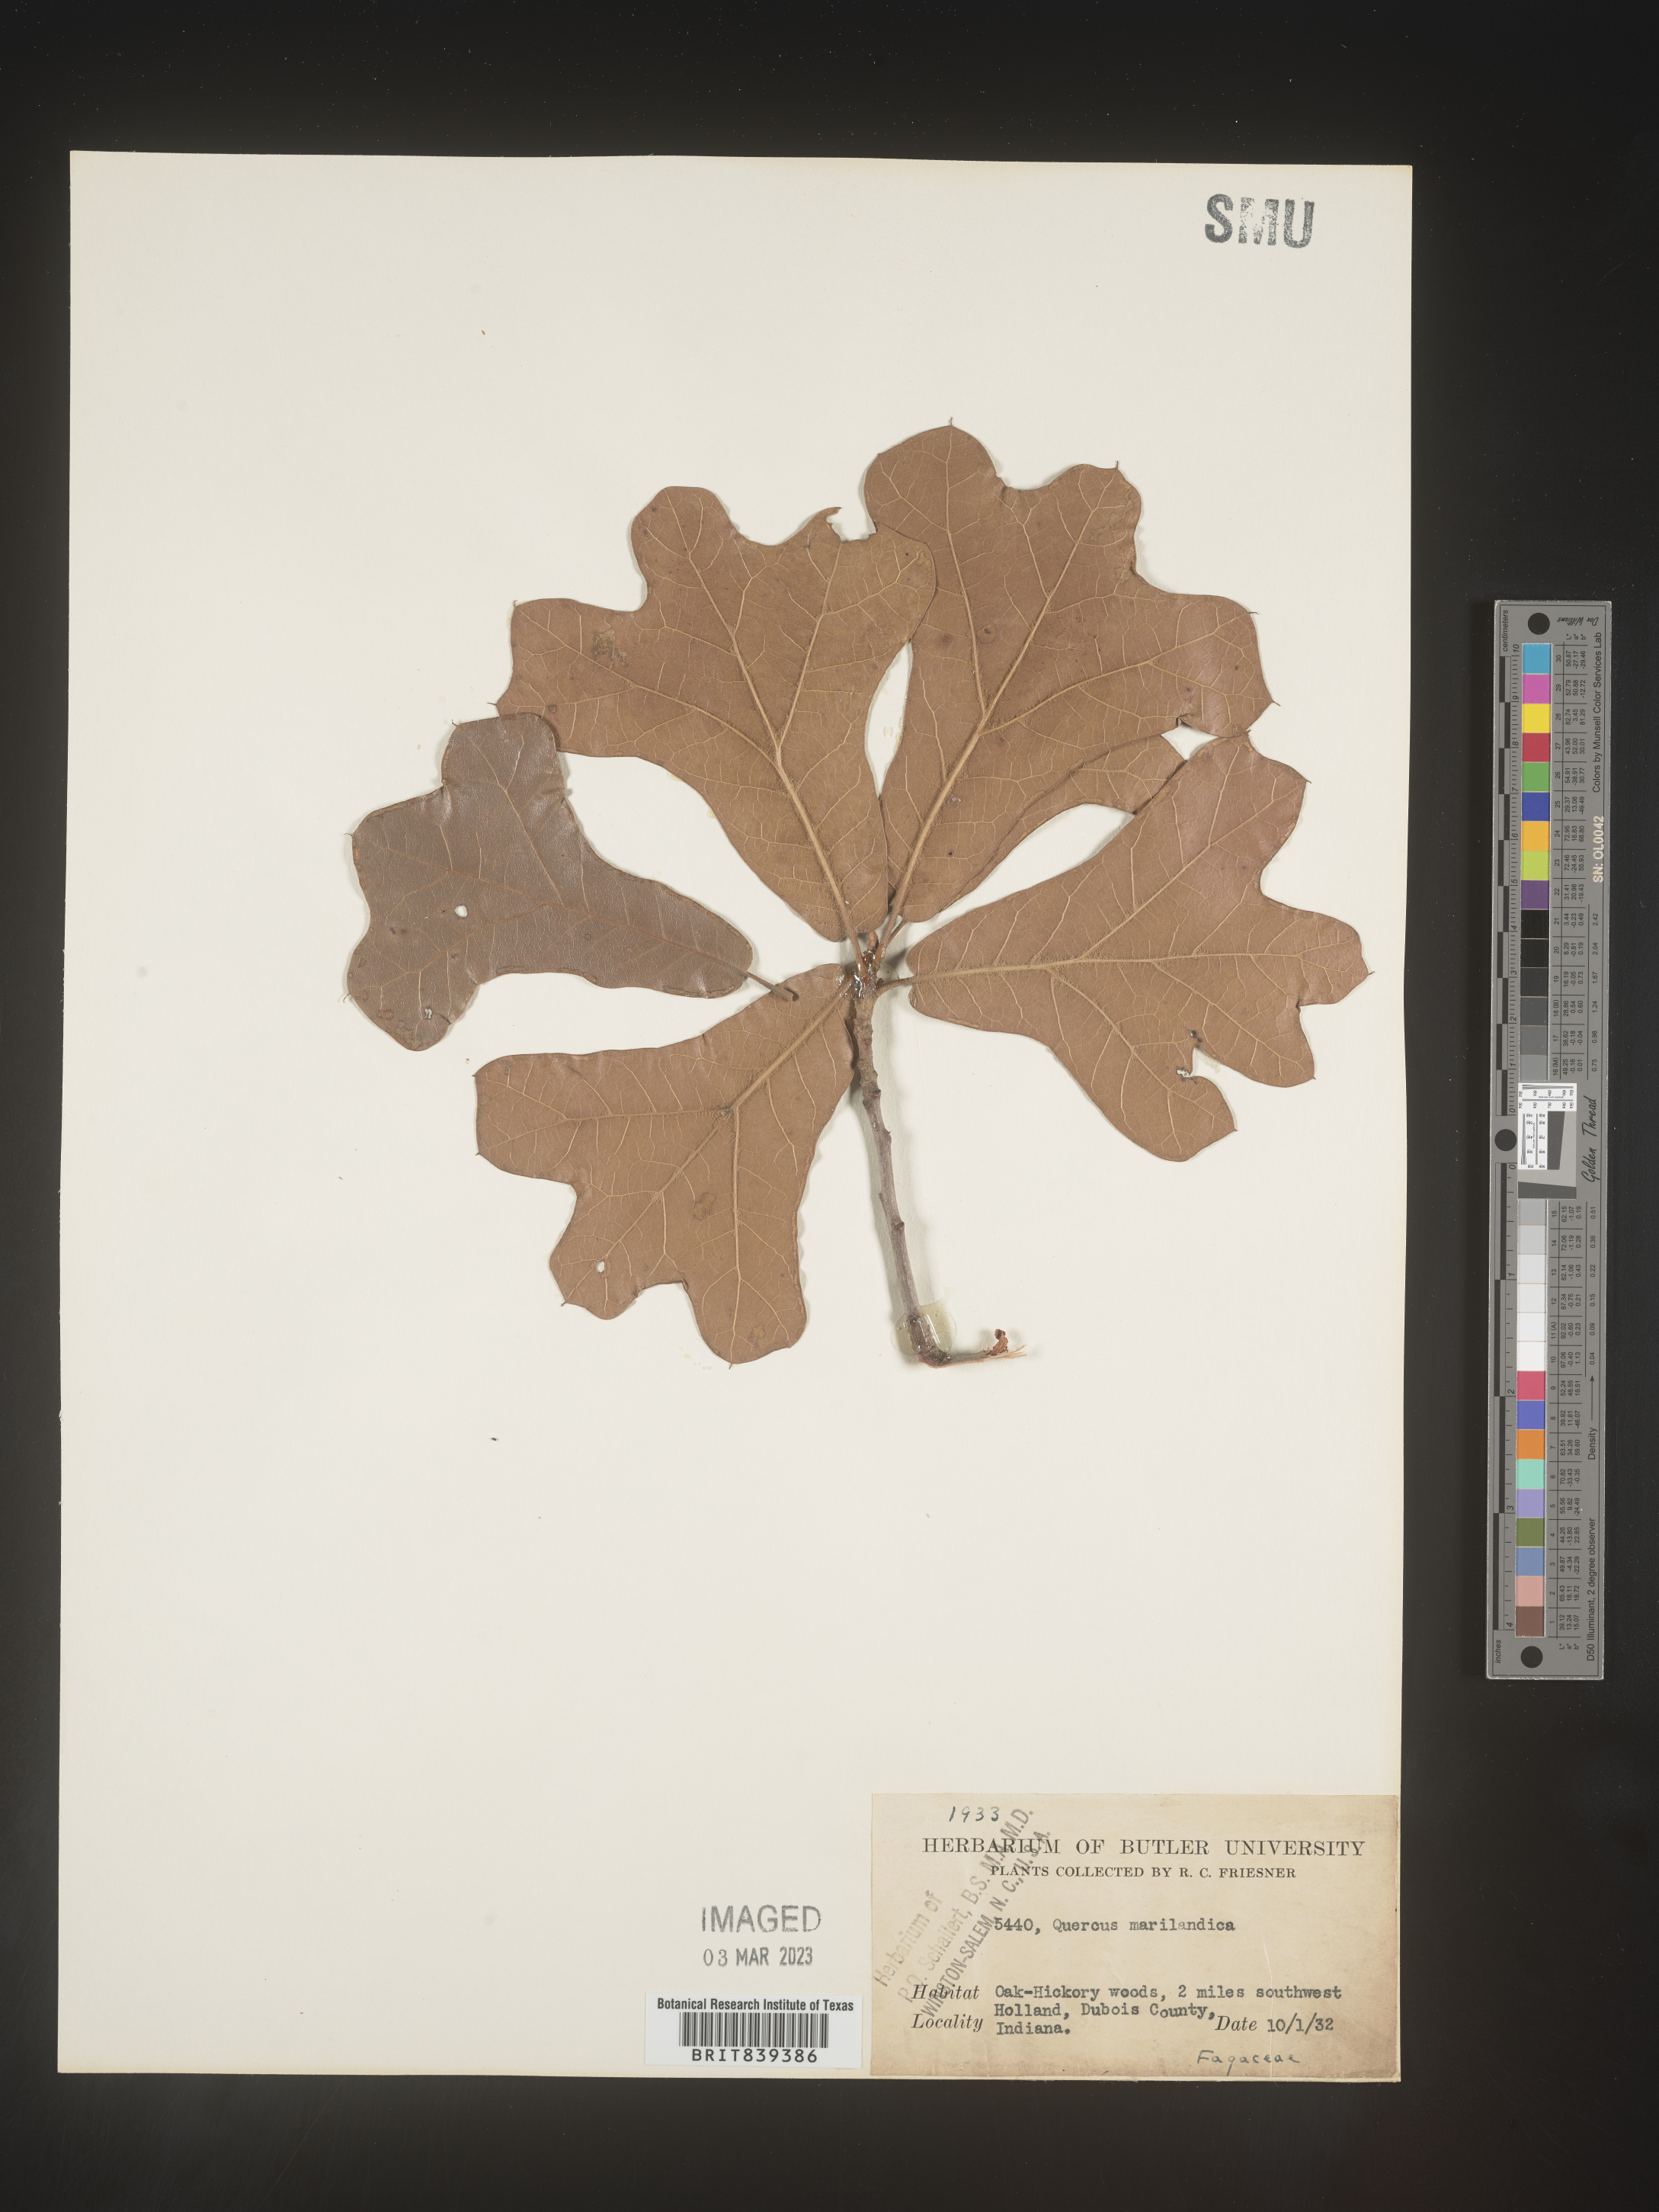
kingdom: Plantae
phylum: Tracheophyta
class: Magnoliopsida
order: Fagales
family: Fagaceae
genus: Quercus
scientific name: Quercus marilandica
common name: Blackjack oak
